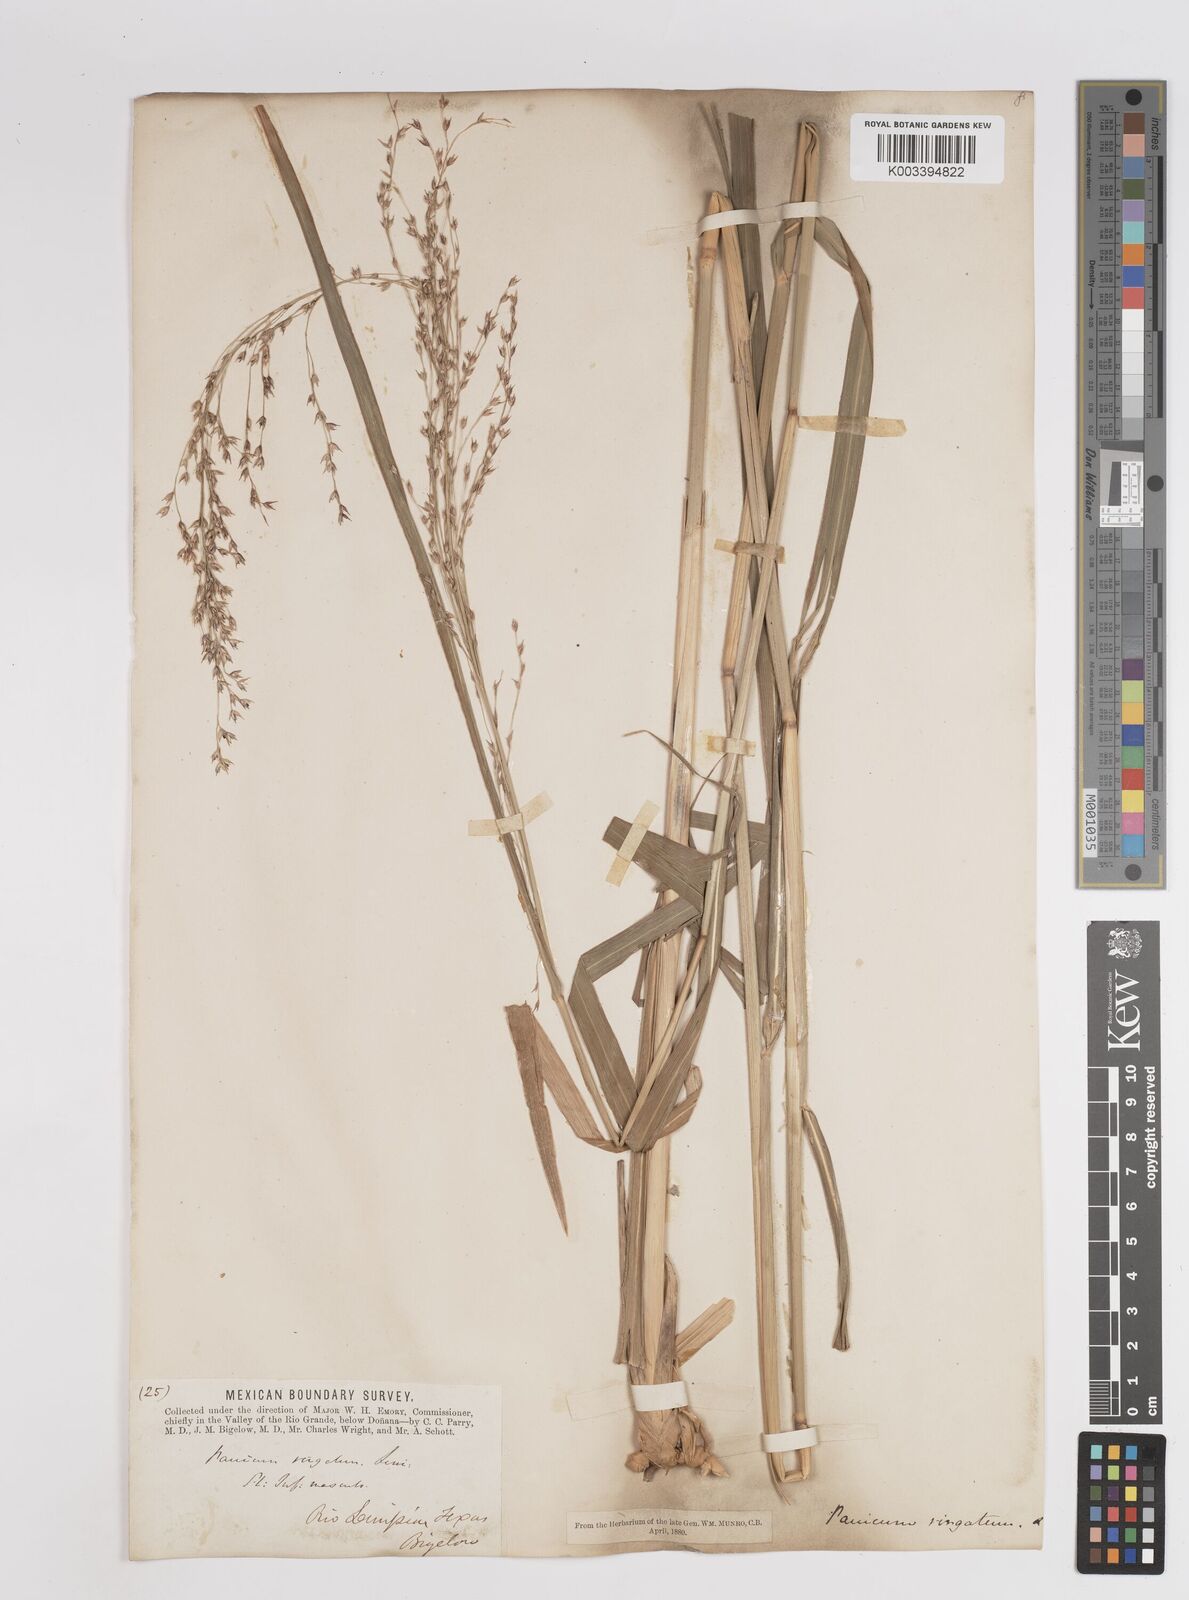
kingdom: Plantae
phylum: Tracheophyta
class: Liliopsida
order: Poales
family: Poaceae
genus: Panicum
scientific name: Panicum virgatum
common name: Switchgrass
